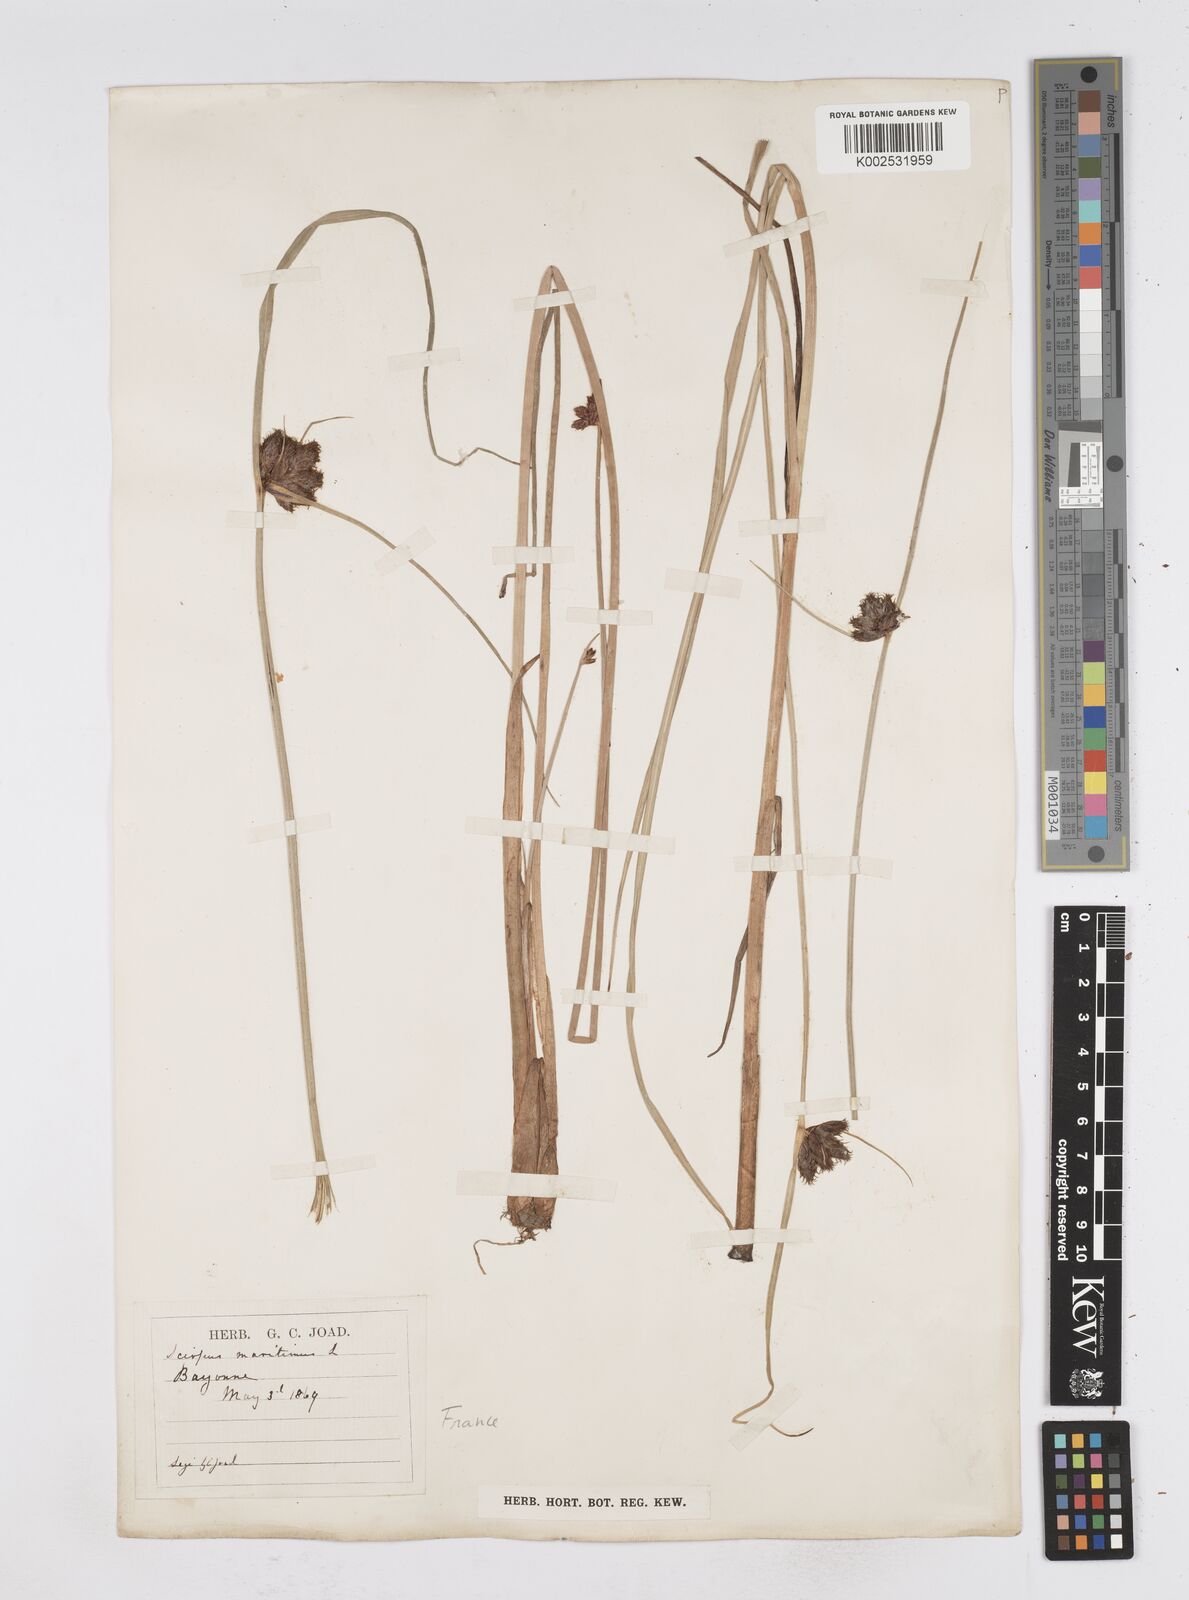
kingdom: Plantae
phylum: Tracheophyta
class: Liliopsida
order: Poales
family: Cyperaceae
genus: Bolboschoenus
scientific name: Bolboschoenus maritimus
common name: Sea club-rush
